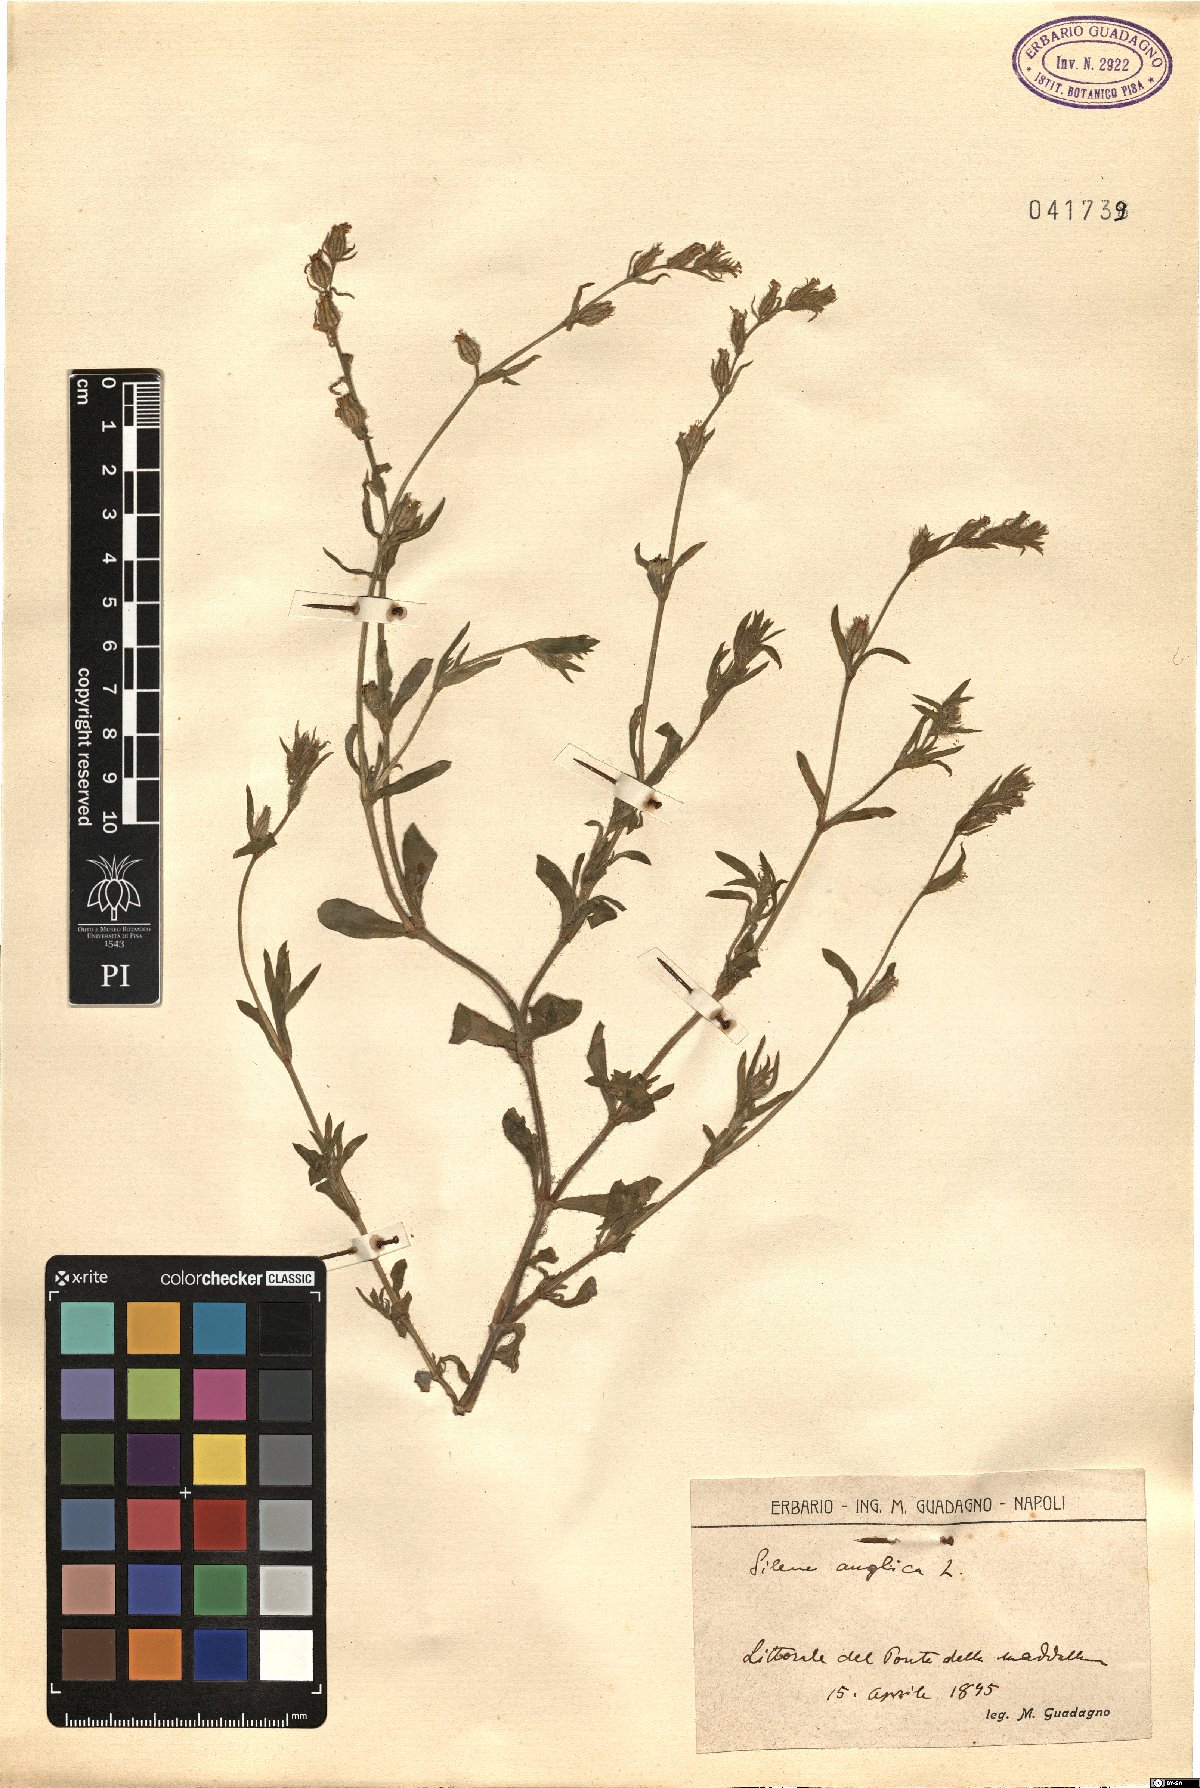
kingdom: Plantae
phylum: Tracheophyta
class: Magnoliopsida
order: Caryophyllales
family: Caryophyllaceae
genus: Silene
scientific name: Silene gallica
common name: Small-flowered catchfly
